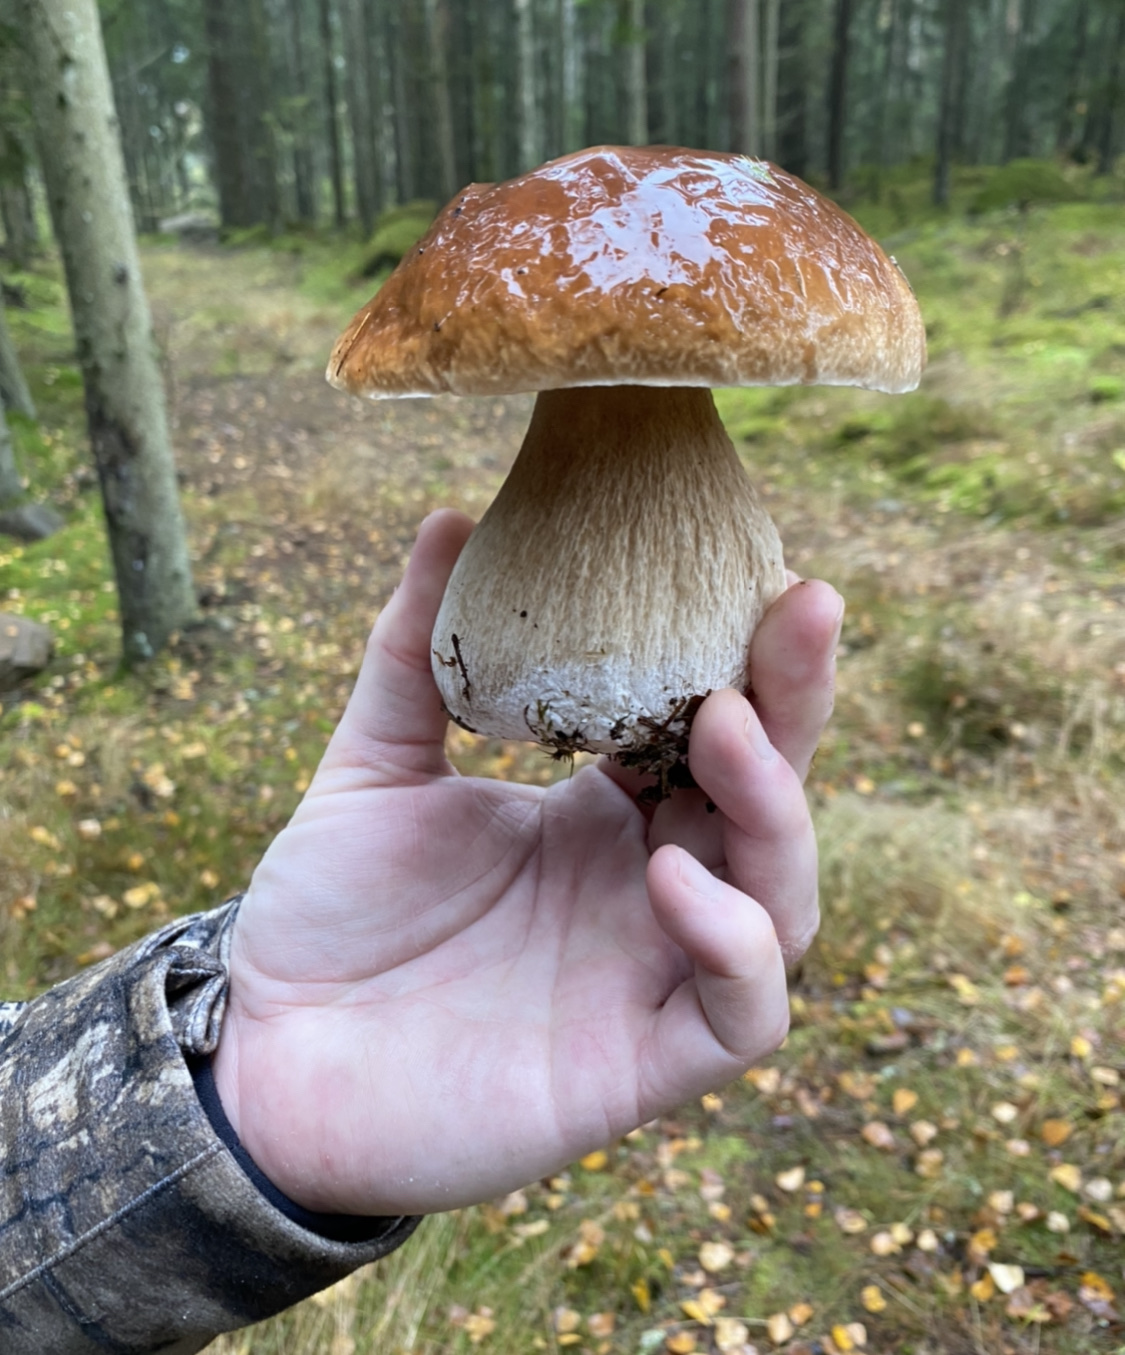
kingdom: Fungi
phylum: Basidiomycota
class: Agaricomycetes
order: Boletales
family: Boletaceae
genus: Boletus
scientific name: Boletus edulis
